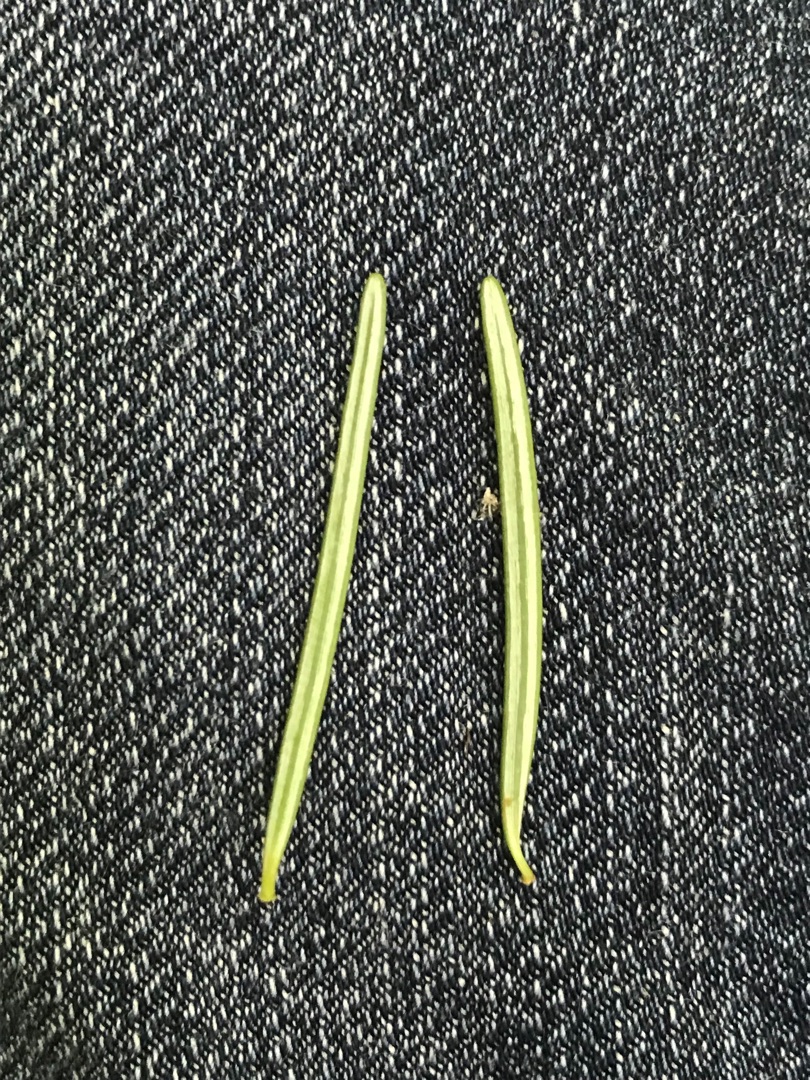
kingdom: Plantae
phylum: Tracheophyta
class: Pinopsida
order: Pinales
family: Pinaceae
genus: Pseudotsuga
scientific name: Pseudotsuga menziesii
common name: Douglasgran
